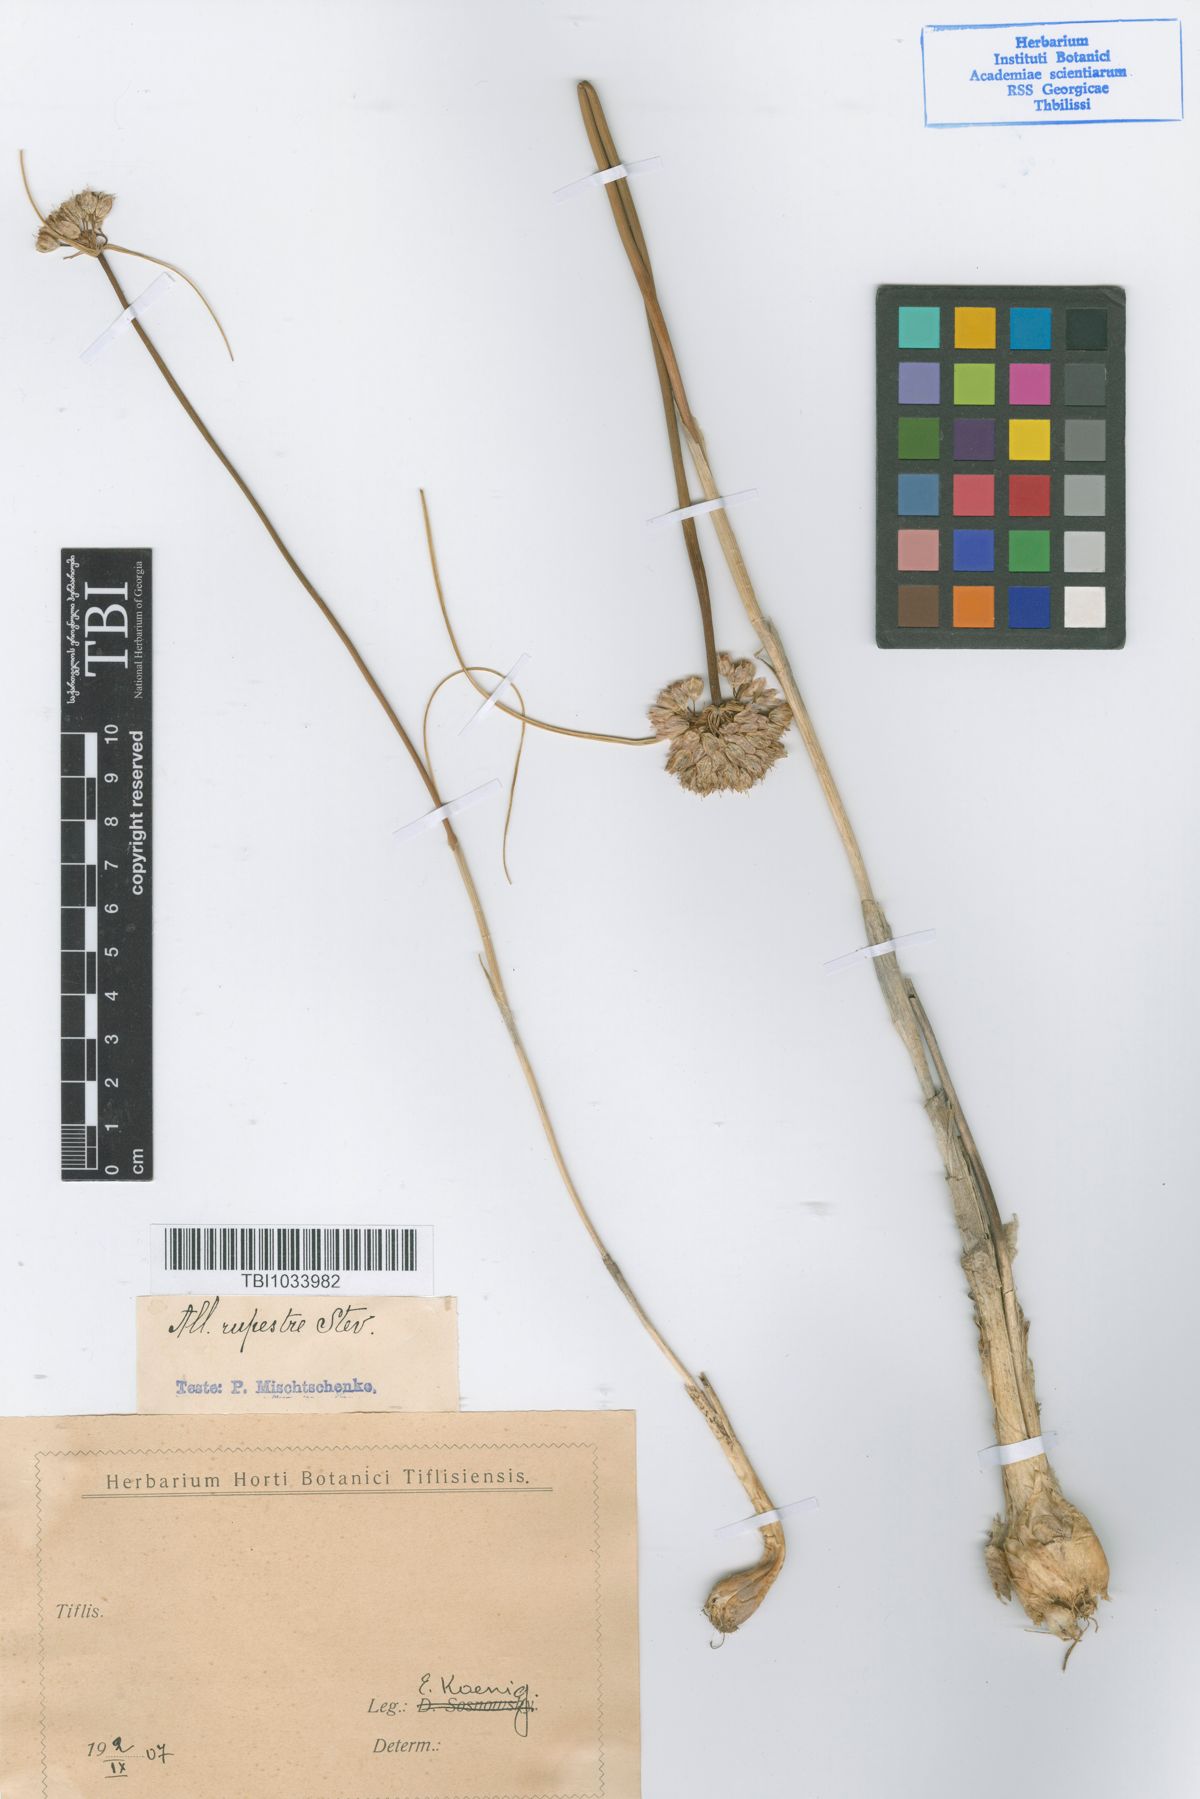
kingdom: Plantae
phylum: Tracheophyta
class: Liliopsida
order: Asparagales
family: Amaryllidaceae
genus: Allium
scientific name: Allium rupestre
